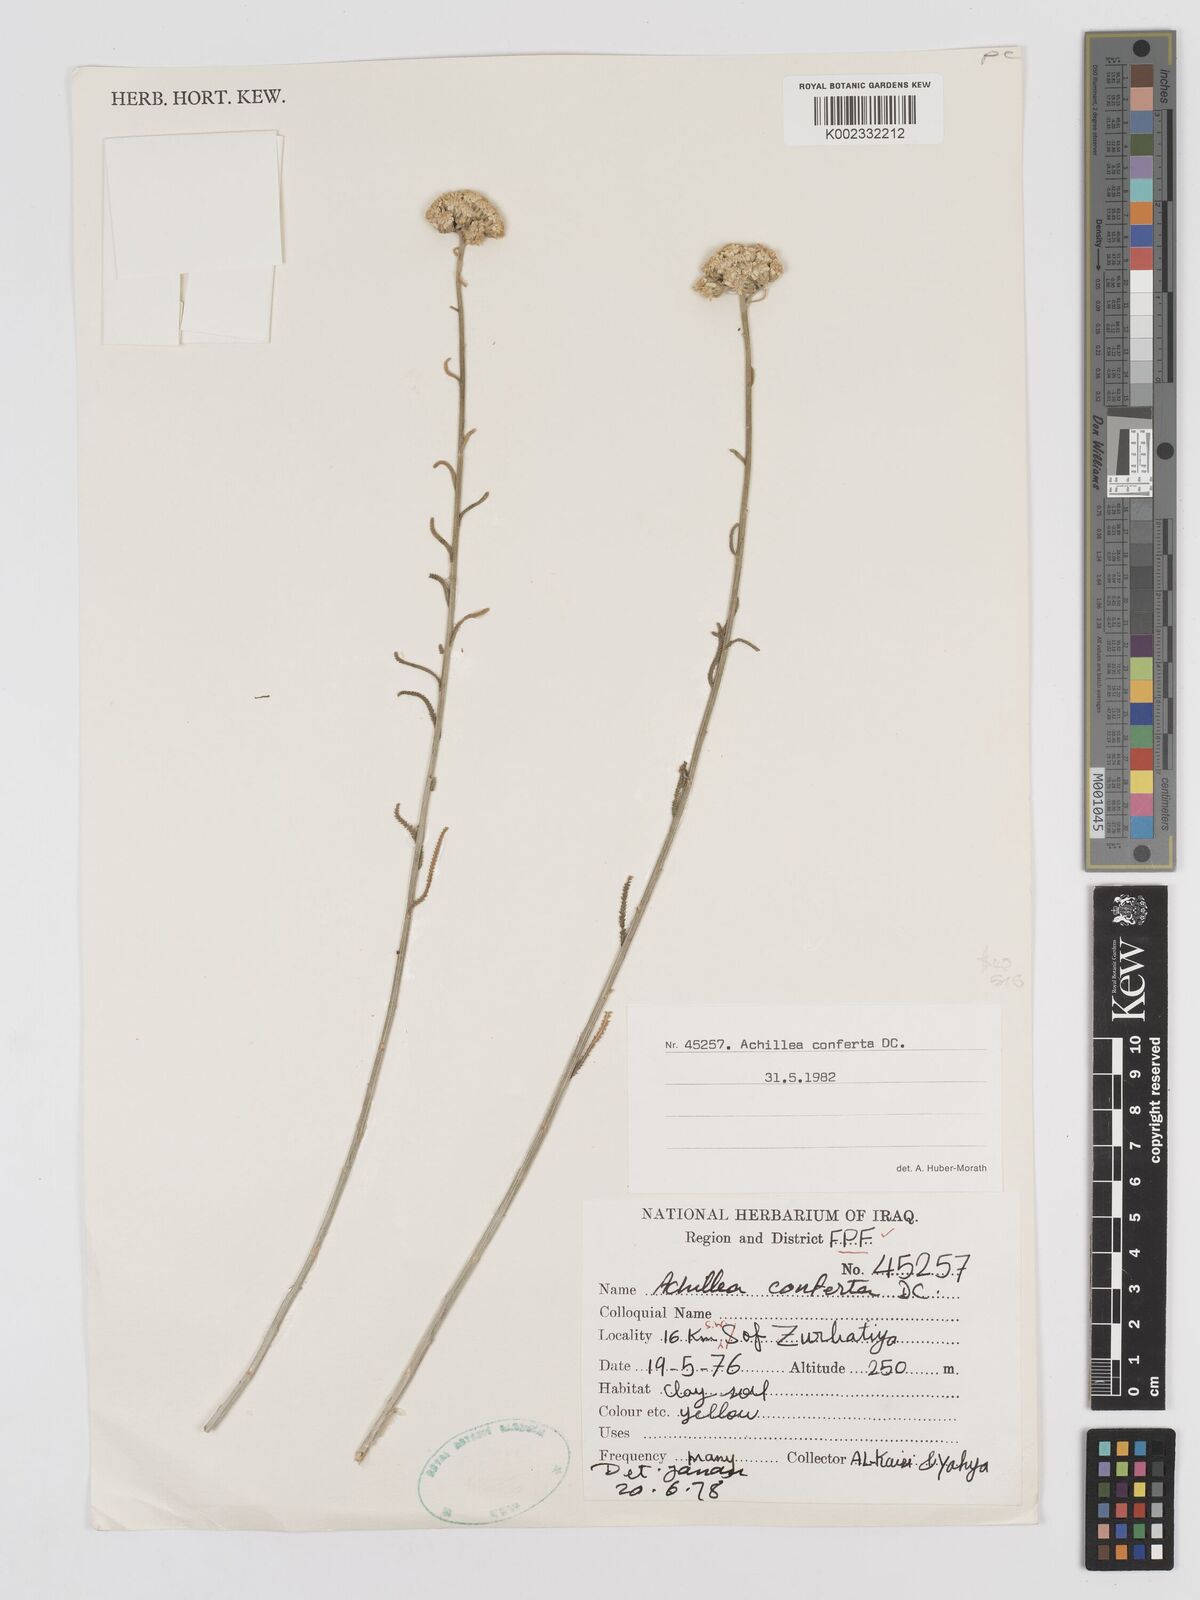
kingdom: Plantae
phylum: Tracheophyta
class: Magnoliopsida
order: Asterales
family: Asteraceae
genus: Achillea
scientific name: Achillea conferta
